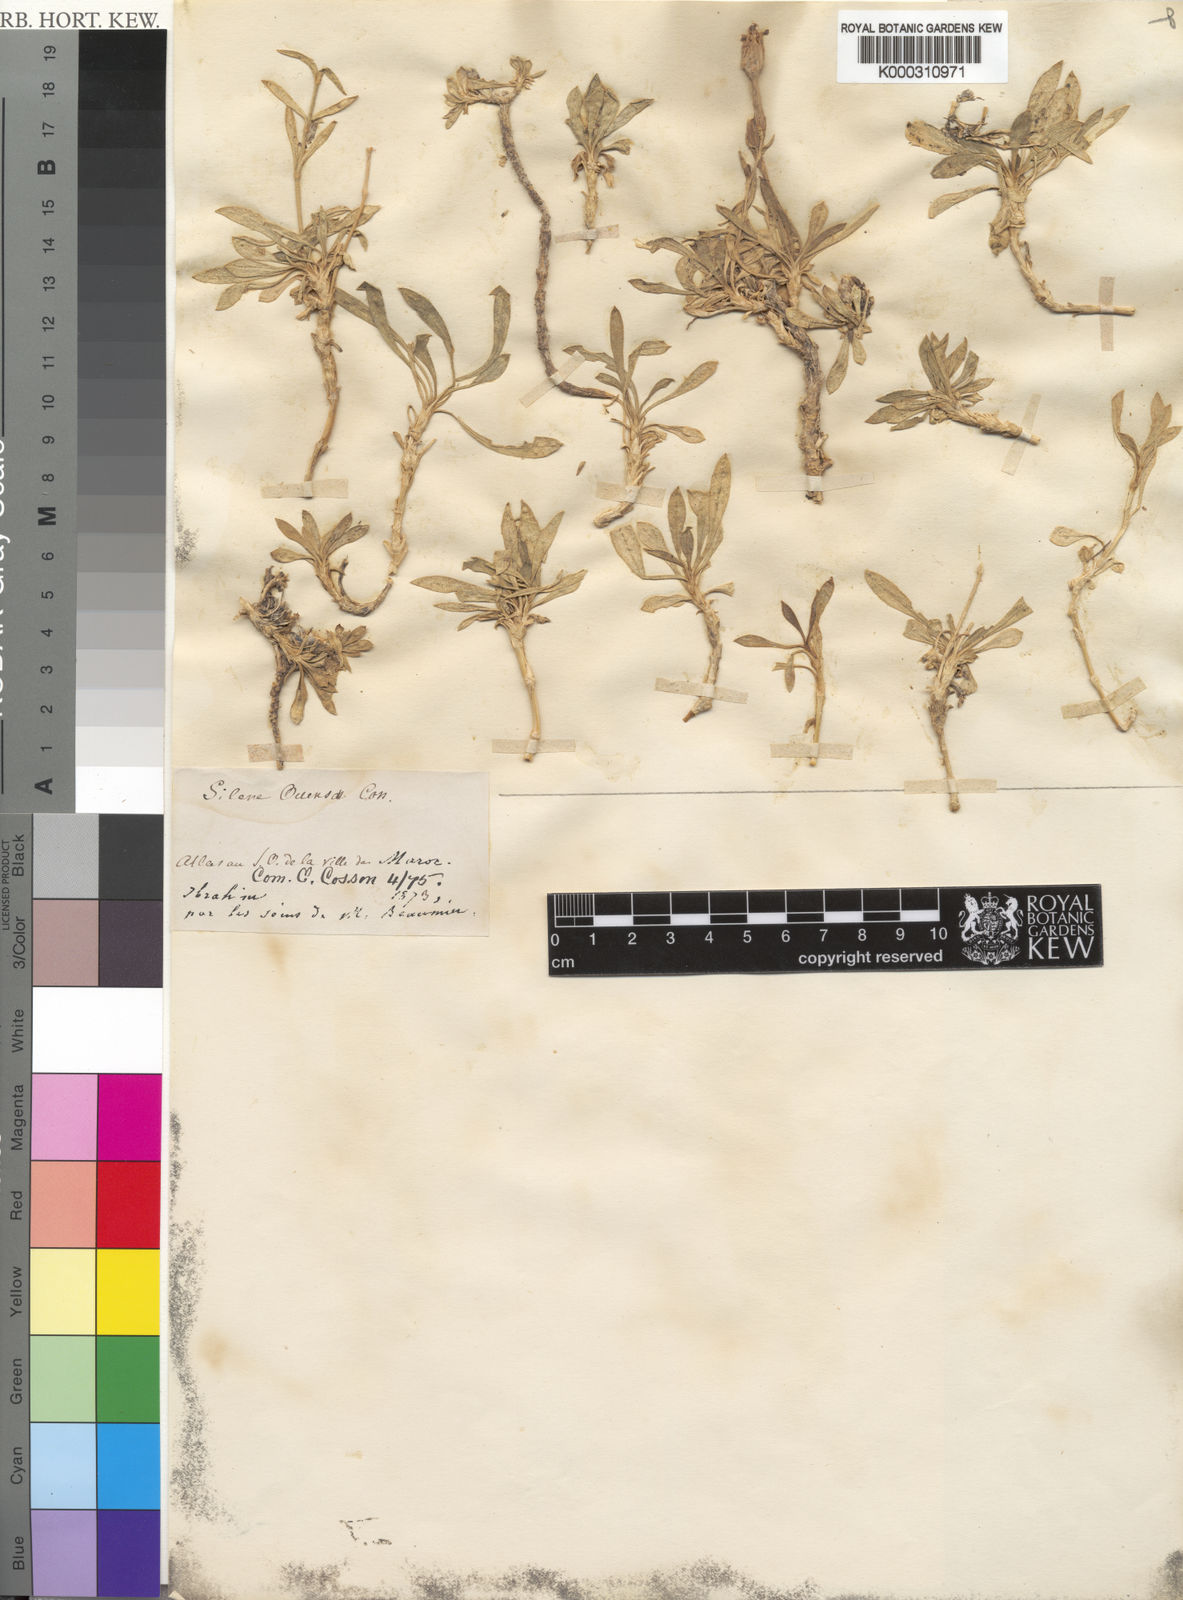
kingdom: Plantae
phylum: Tracheophyta
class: Magnoliopsida
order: Caryophyllales
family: Caryophyllaceae
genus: Silene
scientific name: Silene boryi
